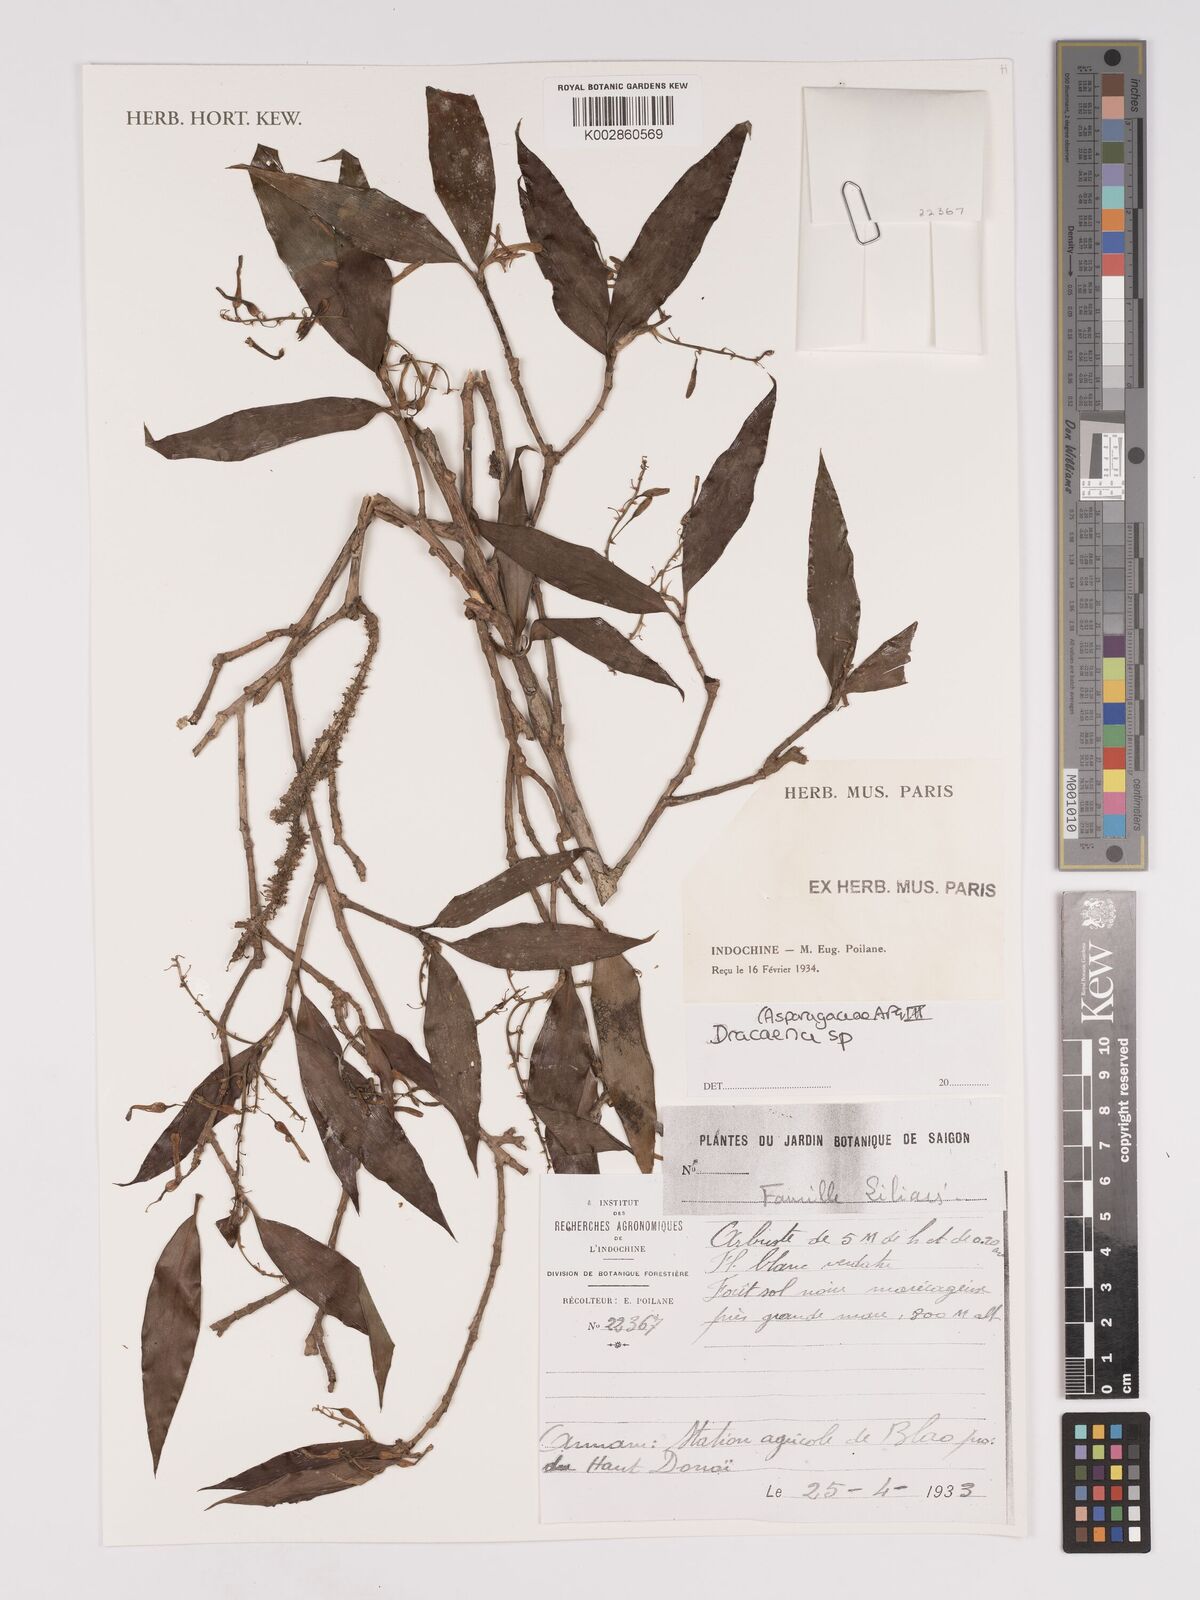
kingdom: Plantae
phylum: Tracheophyta
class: Liliopsida
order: Asparagales
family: Asparagaceae
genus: Dracaena
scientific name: Dracaena
